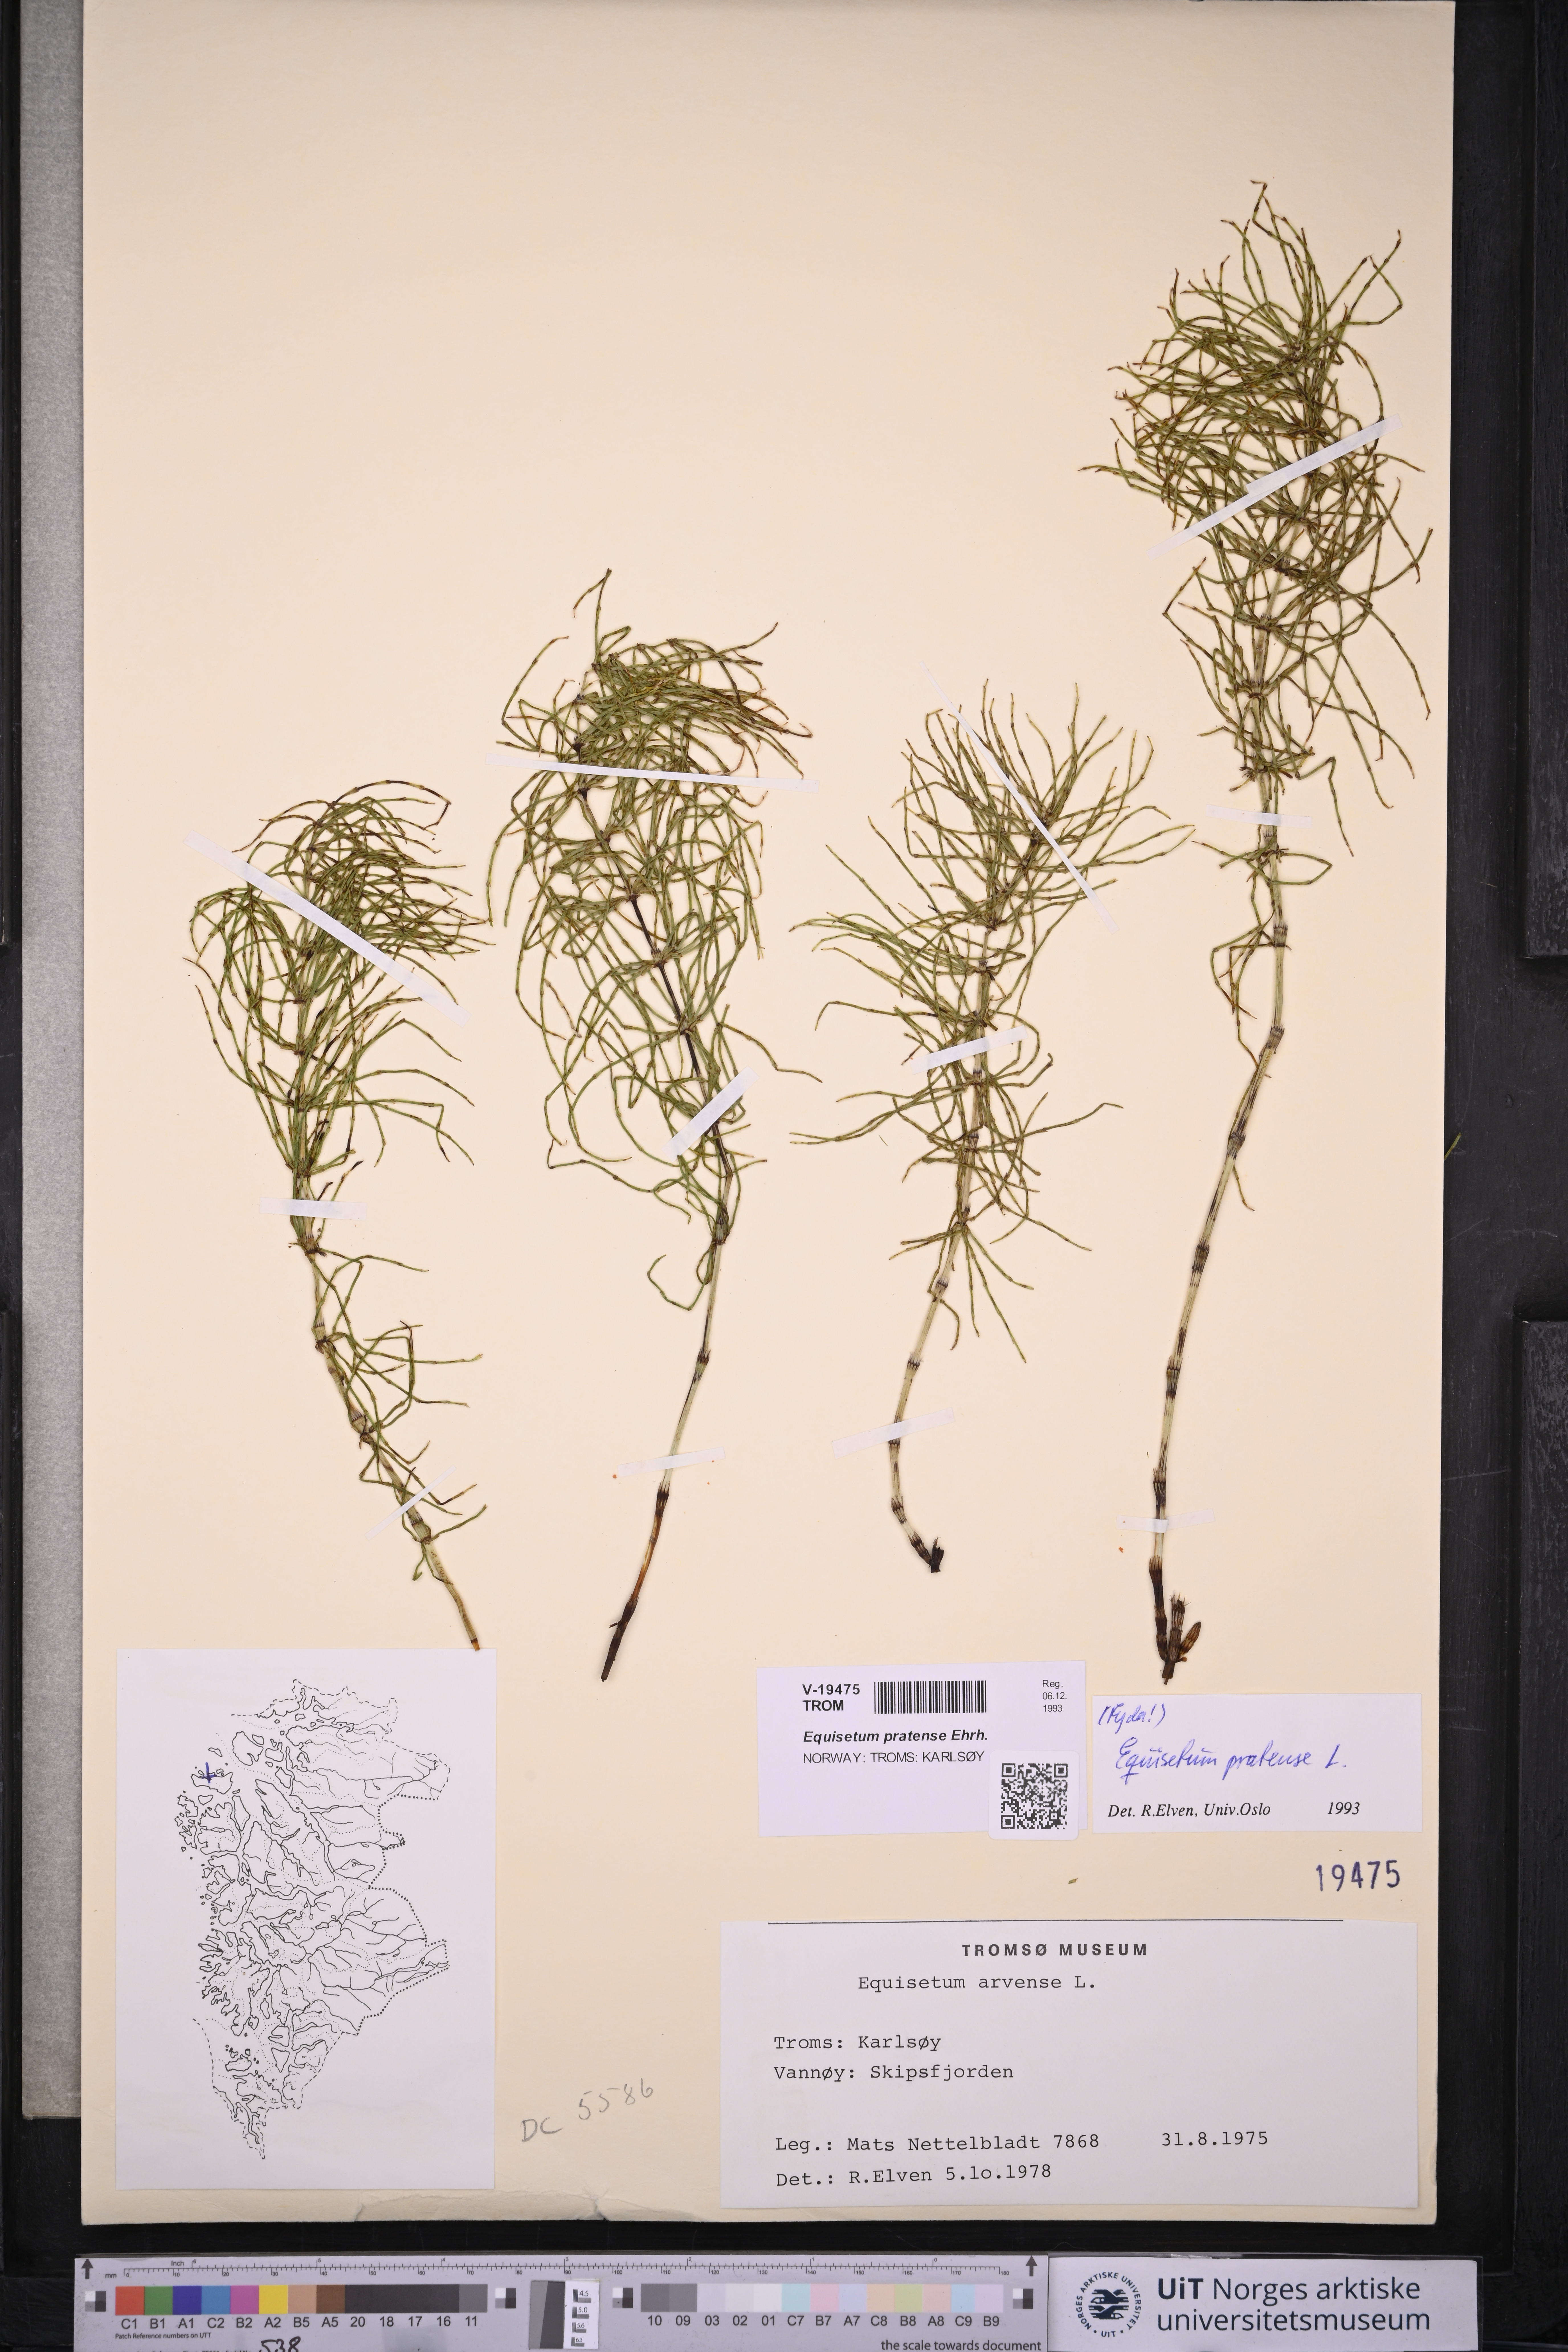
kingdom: Plantae
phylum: Tracheophyta
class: Polypodiopsida
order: Equisetales
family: Equisetaceae
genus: Equisetum
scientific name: Equisetum pratense
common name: Meadow horsetail
